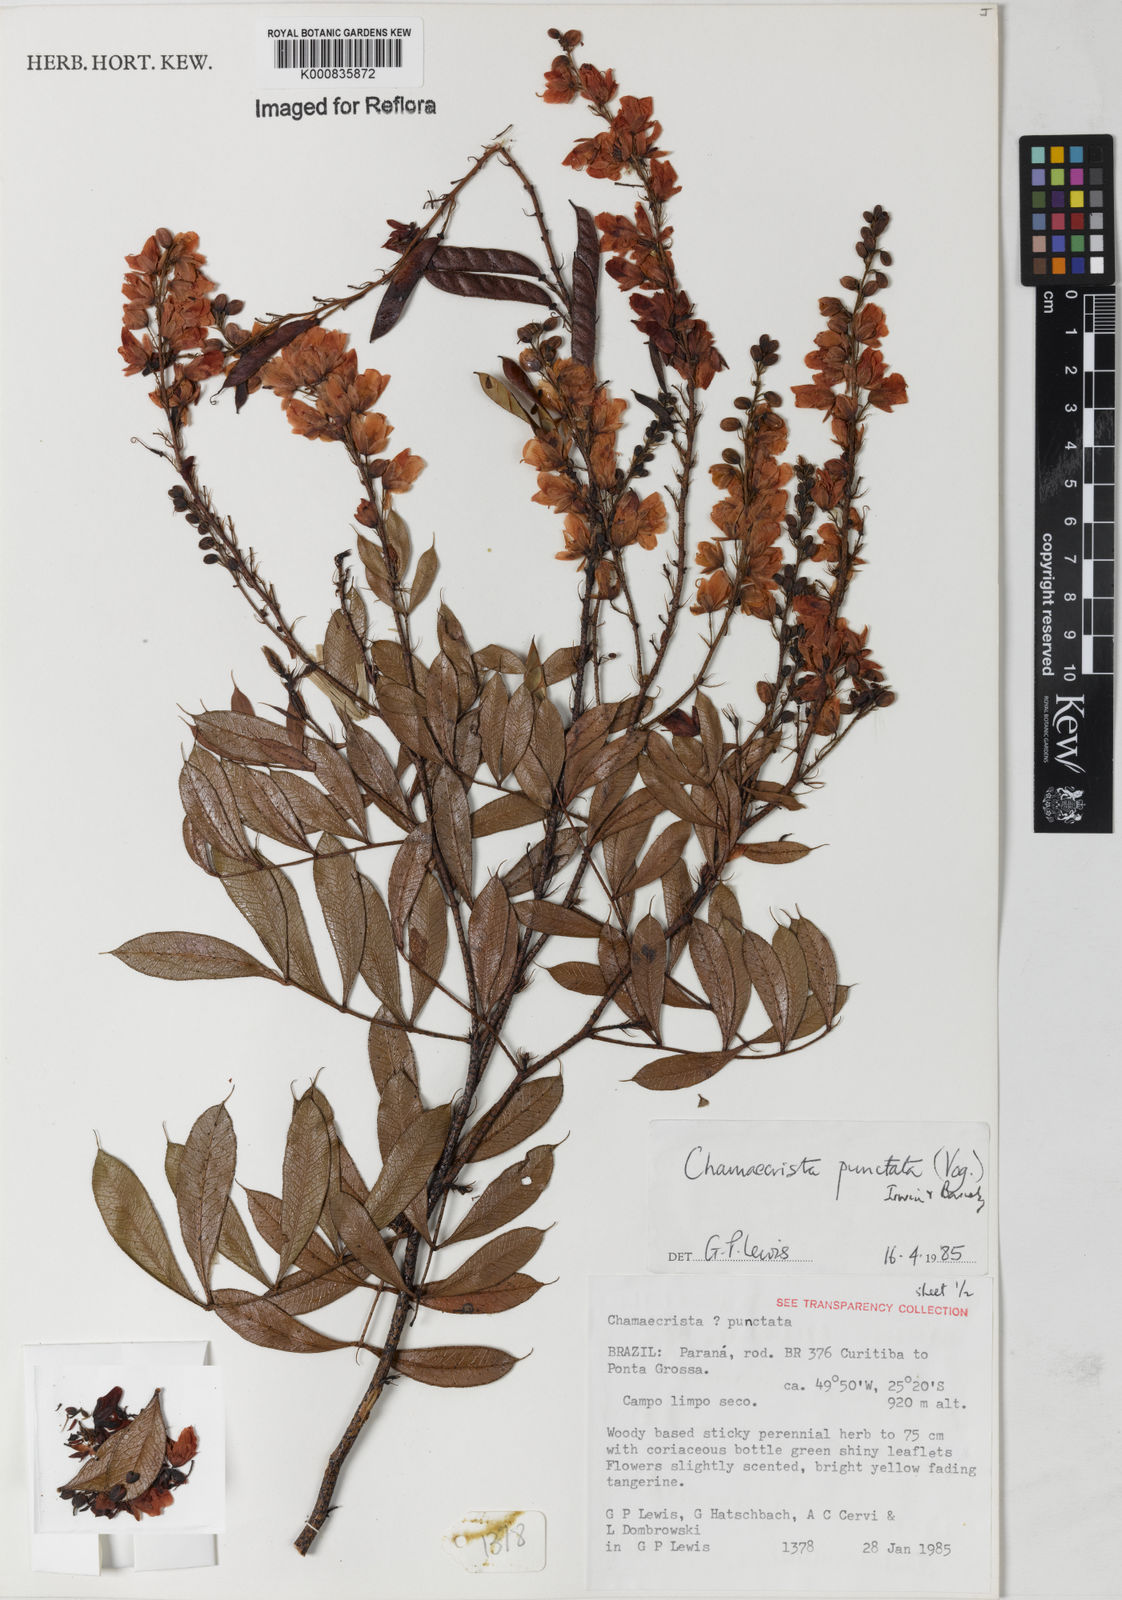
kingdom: Plantae
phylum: Tracheophyta
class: Magnoliopsida
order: Fabales
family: Fabaceae
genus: Chamaecrista
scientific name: Chamaecrista punctata
